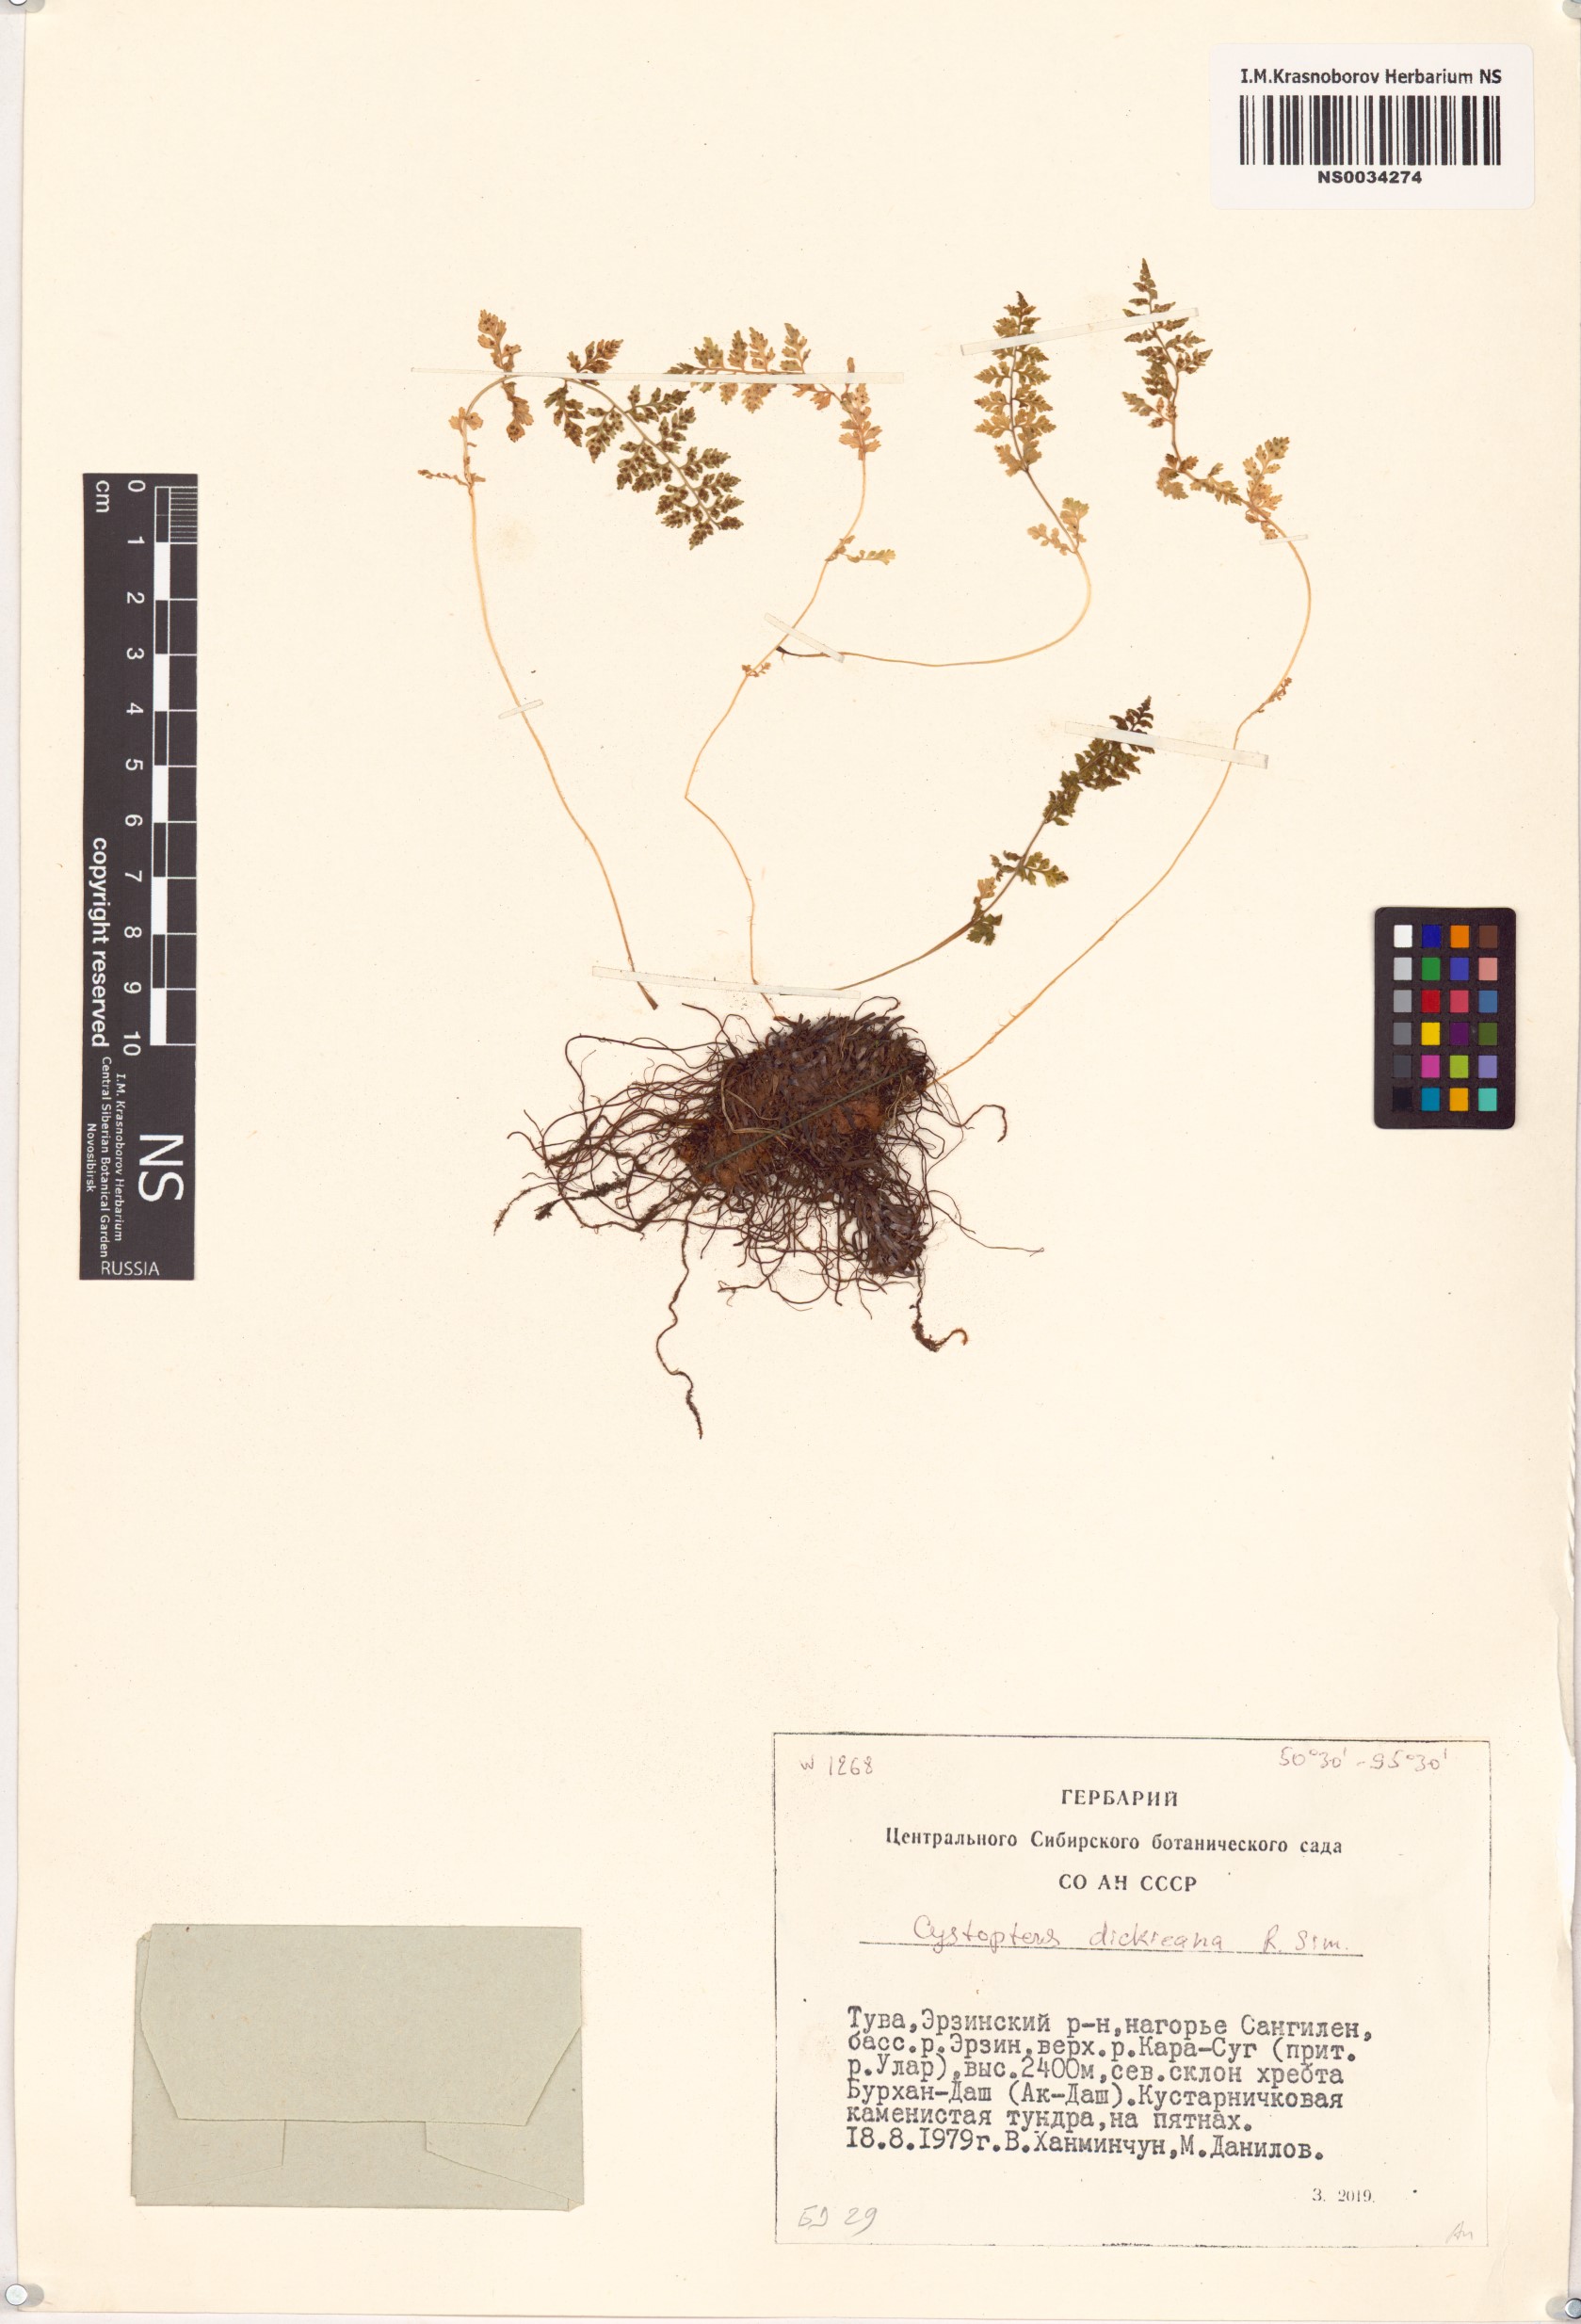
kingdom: Plantae
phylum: Tracheophyta
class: Polypodiopsida
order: Polypodiales
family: Cystopteridaceae
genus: Cystopteris
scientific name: Cystopteris dickieana
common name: Dickie's bladder-fern
